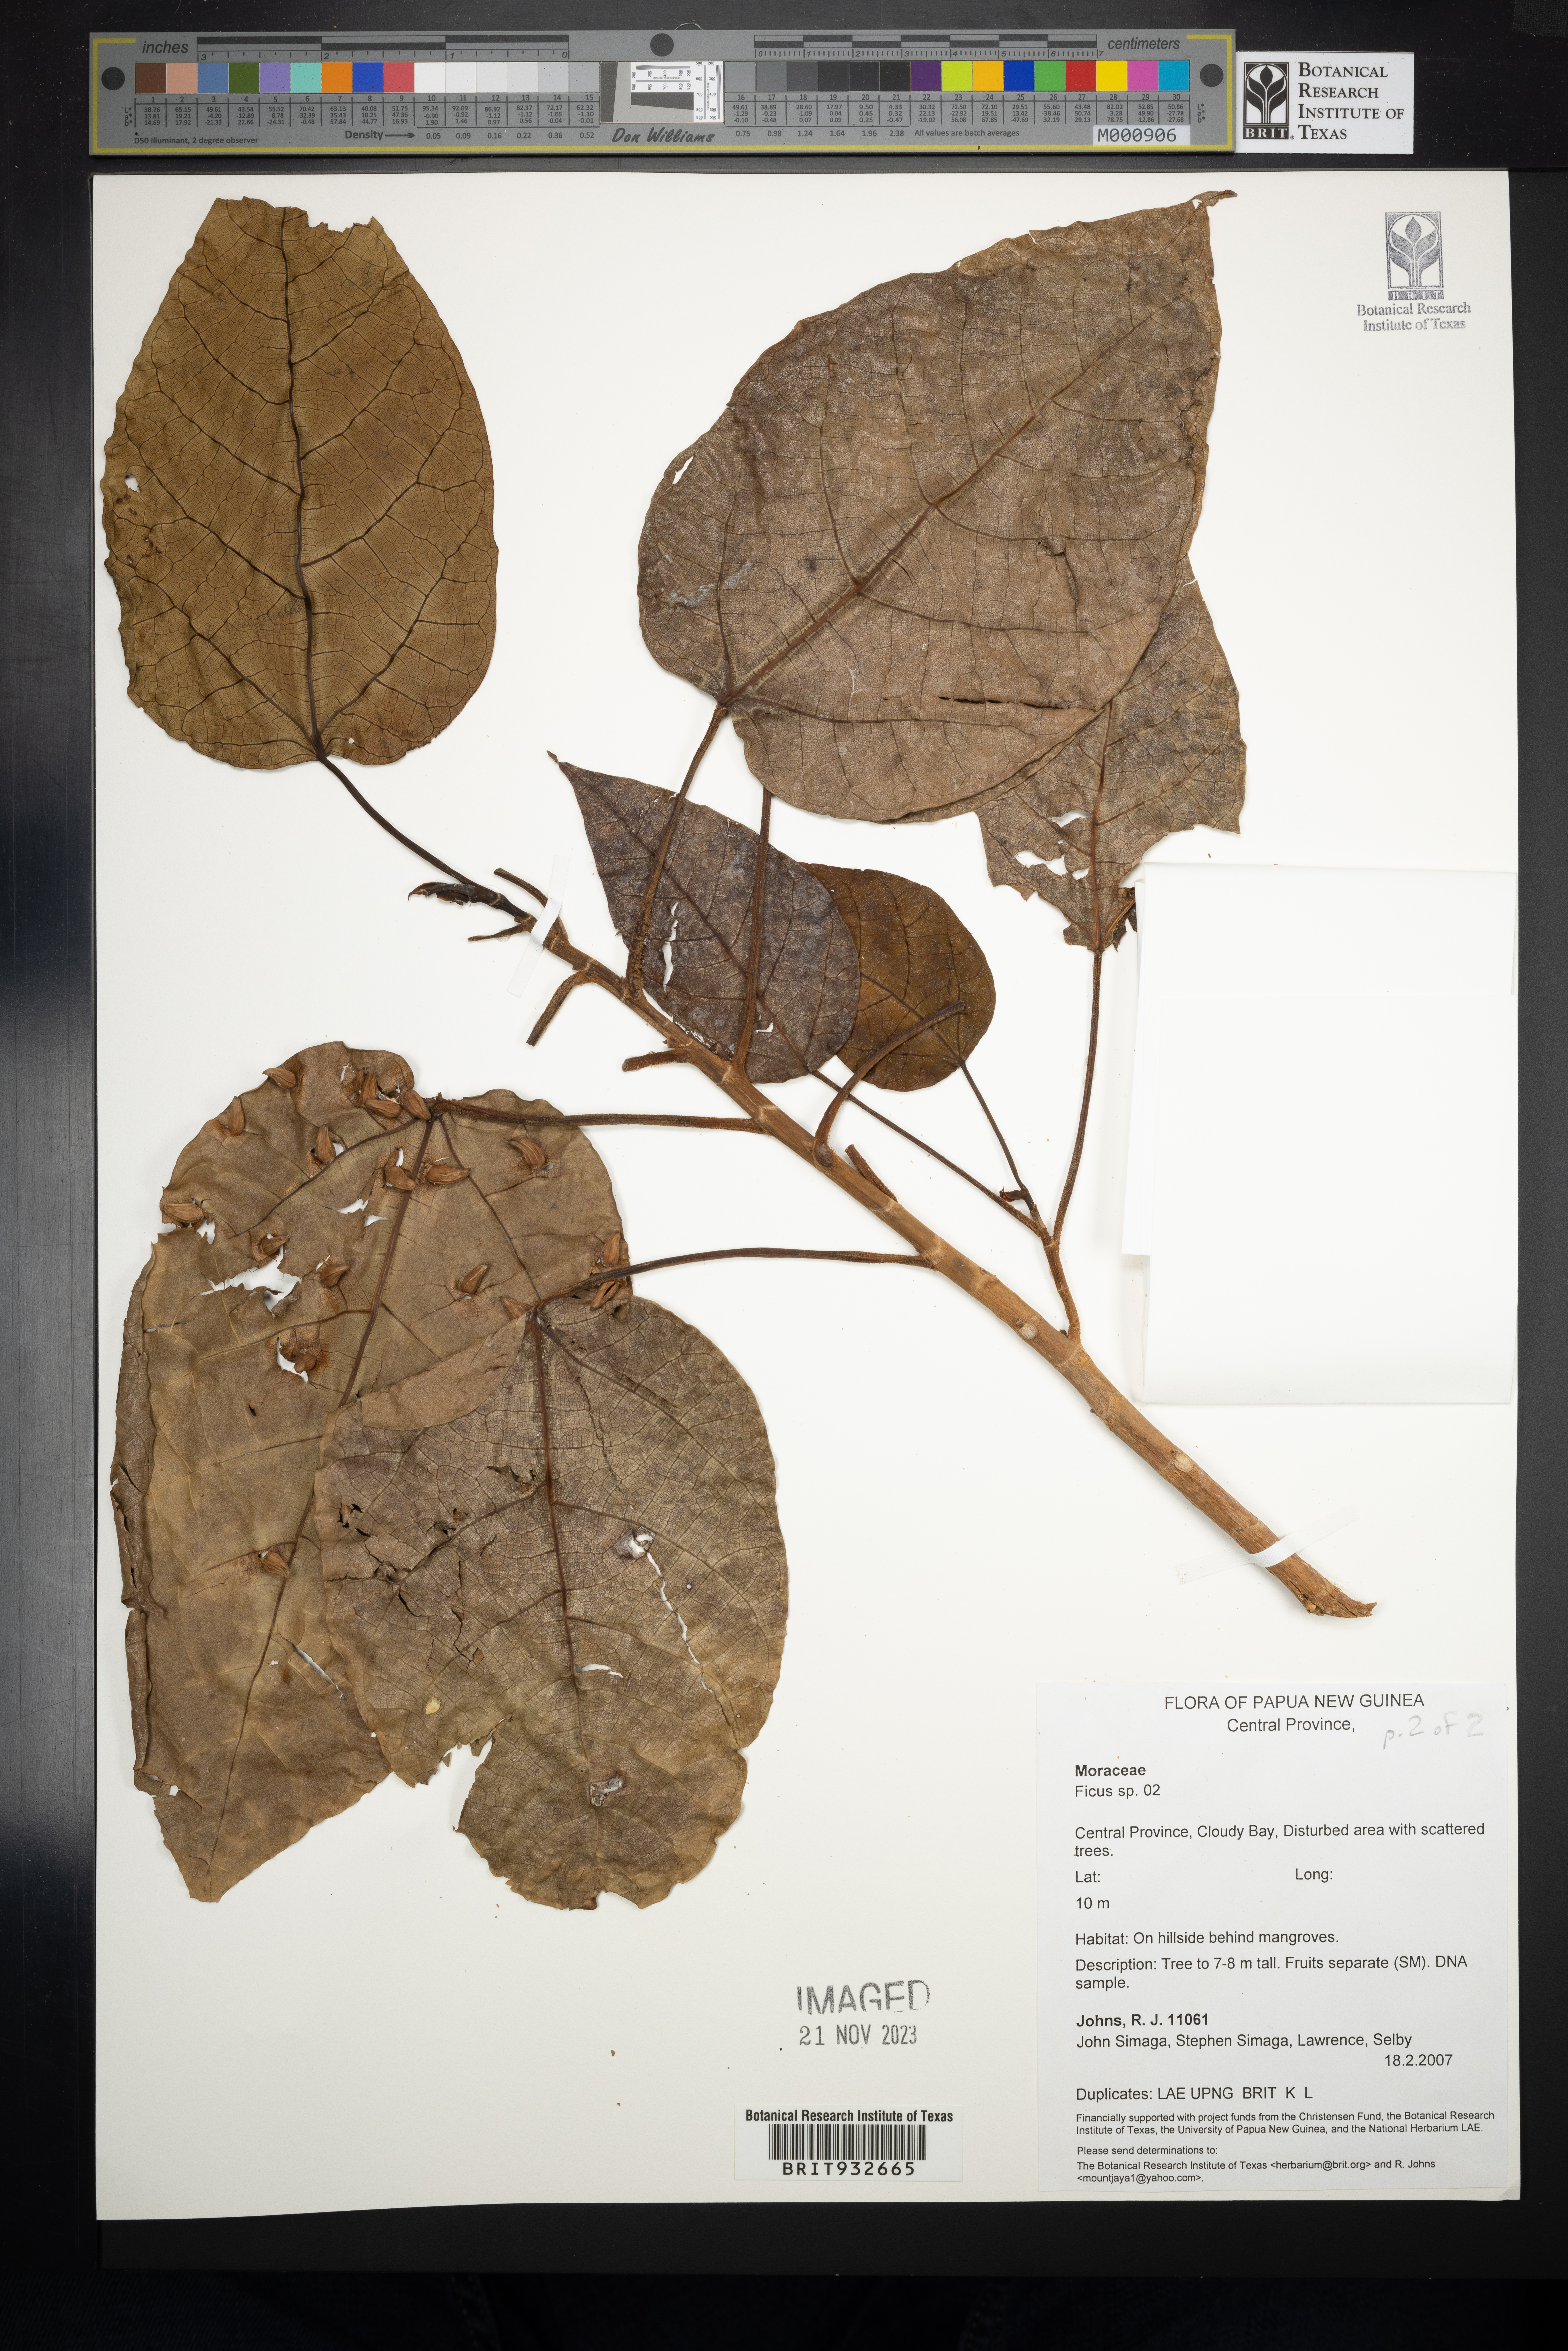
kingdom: Plantae
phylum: Tracheophyta
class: Magnoliopsida
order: Rosales
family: Moraceae
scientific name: Moraceae
